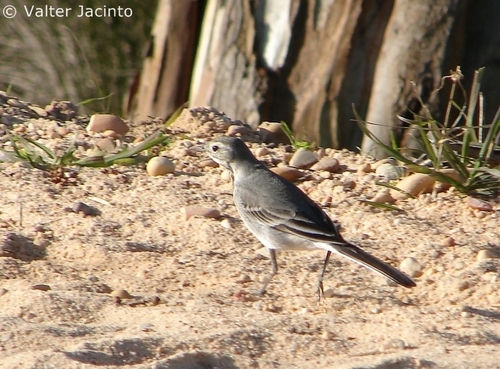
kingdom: Animalia
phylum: Chordata
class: Aves
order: Passeriformes
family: Motacillidae
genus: Motacilla
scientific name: Motacilla alba
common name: White wagtail
